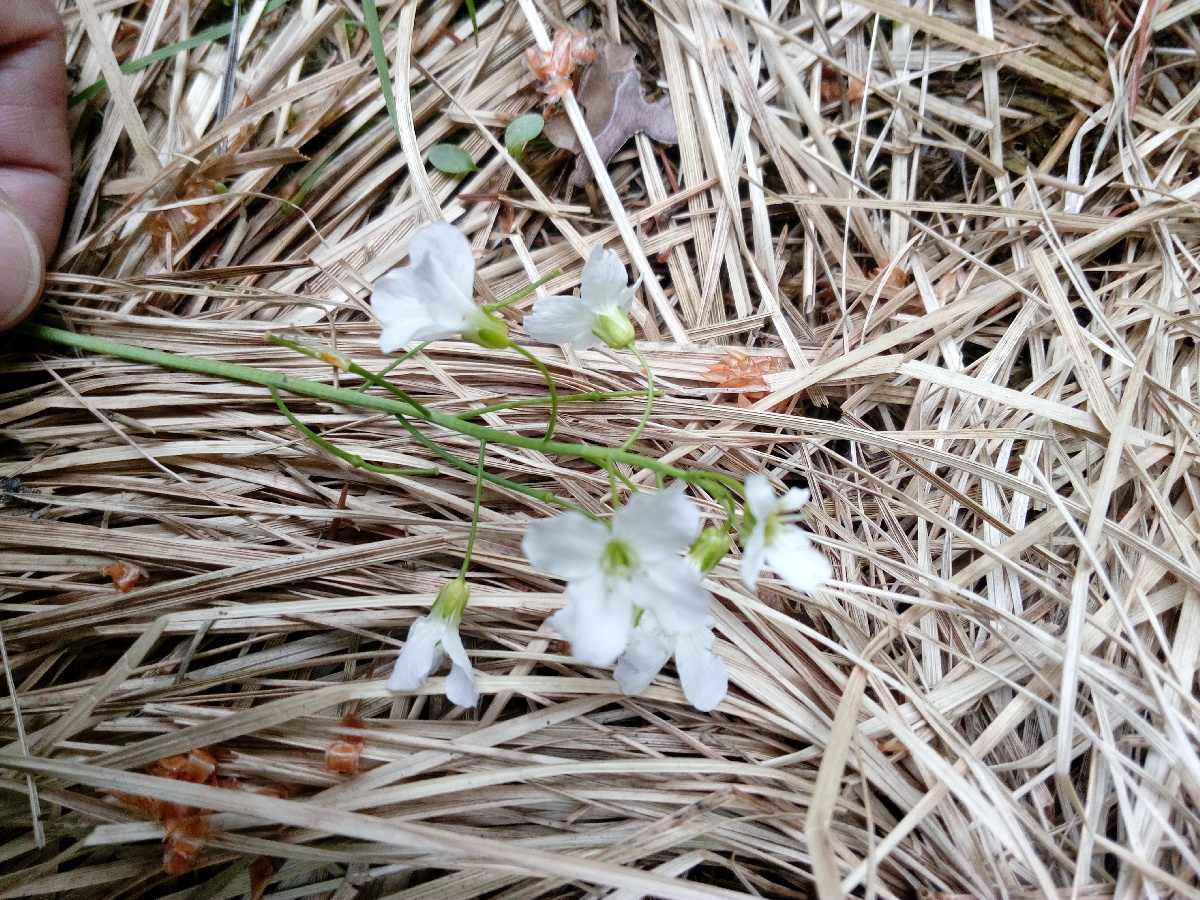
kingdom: Plantae
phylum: Tracheophyta
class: Magnoliopsida
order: Brassicales
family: Brassicaceae
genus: Cardamine
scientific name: Cardamine pratensis
